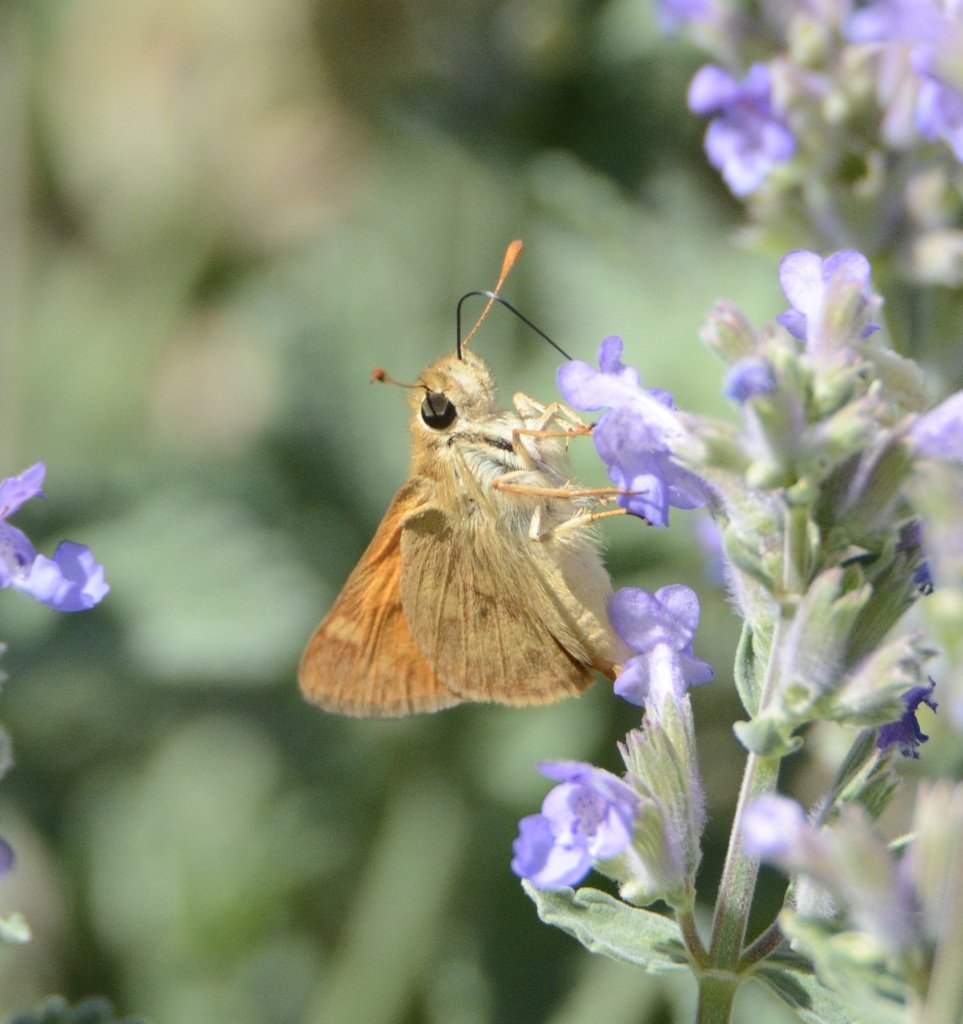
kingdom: Animalia
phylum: Arthropoda
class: Insecta
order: Lepidoptera
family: Hesperiidae
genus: Ochlodes
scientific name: Ochlodes sylvanoides
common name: Woodland Skipper
